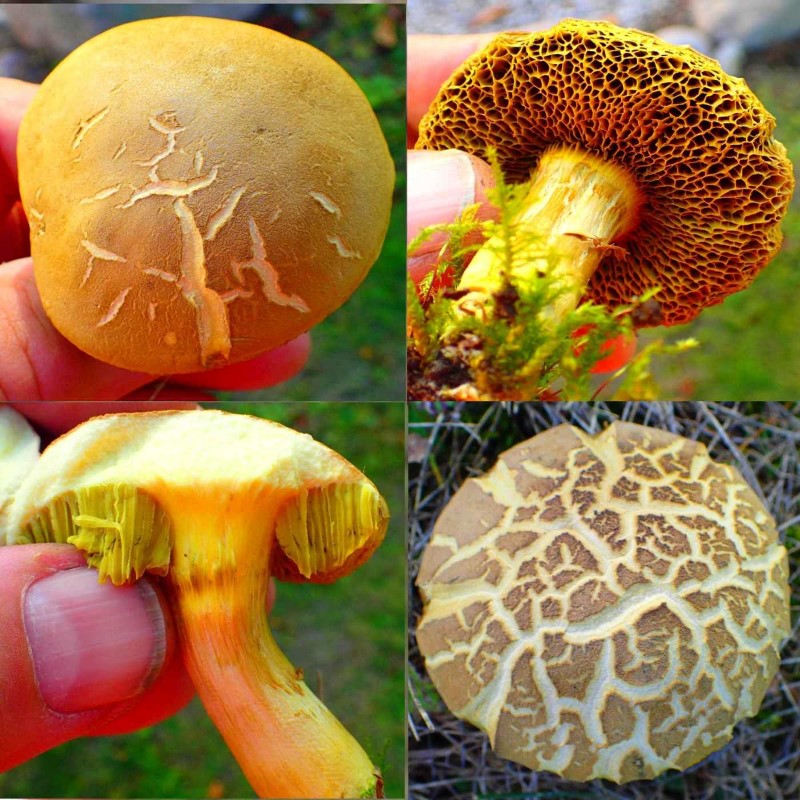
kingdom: Fungi
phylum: Basidiomycota
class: Agaricomycetes
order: Boletales
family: Boletaceae
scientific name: Boletaceae
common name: rørhatfamilien
